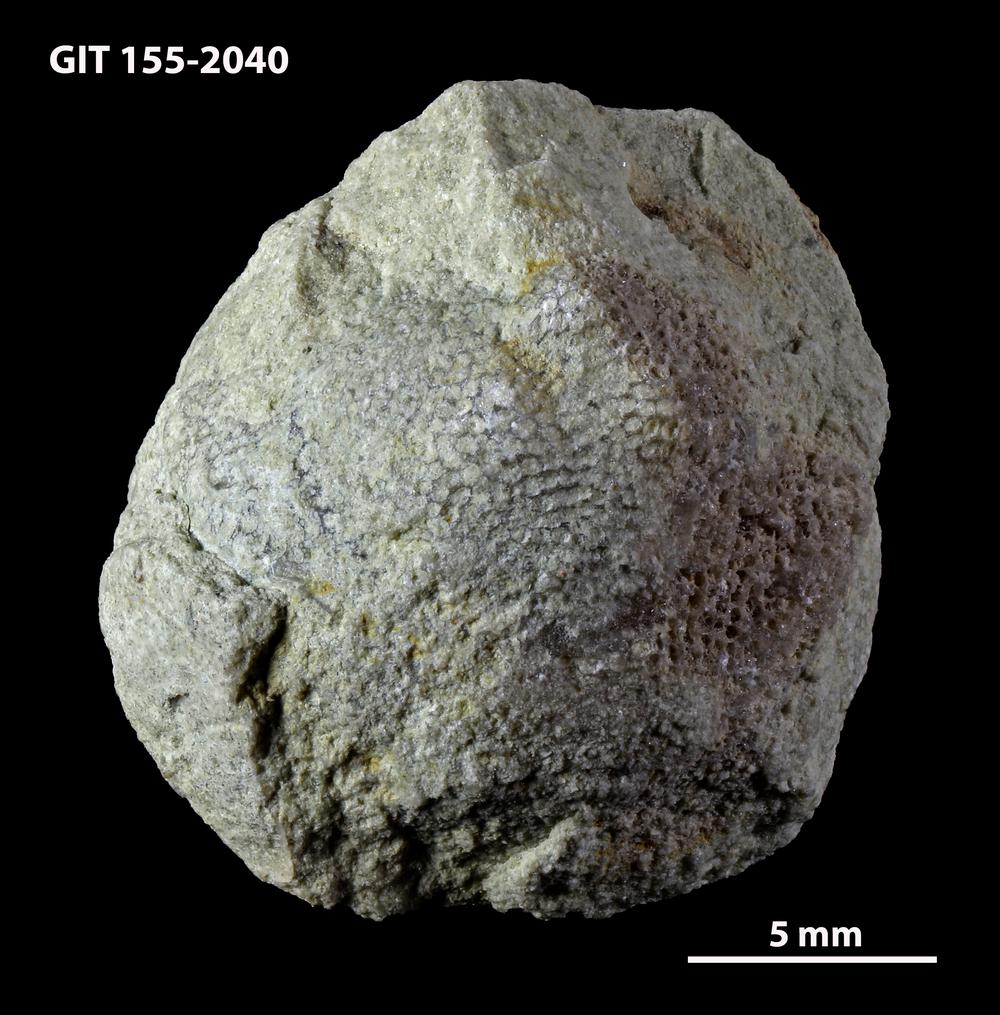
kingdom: Animalia
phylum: Bryozoa
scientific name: Bryozoa
